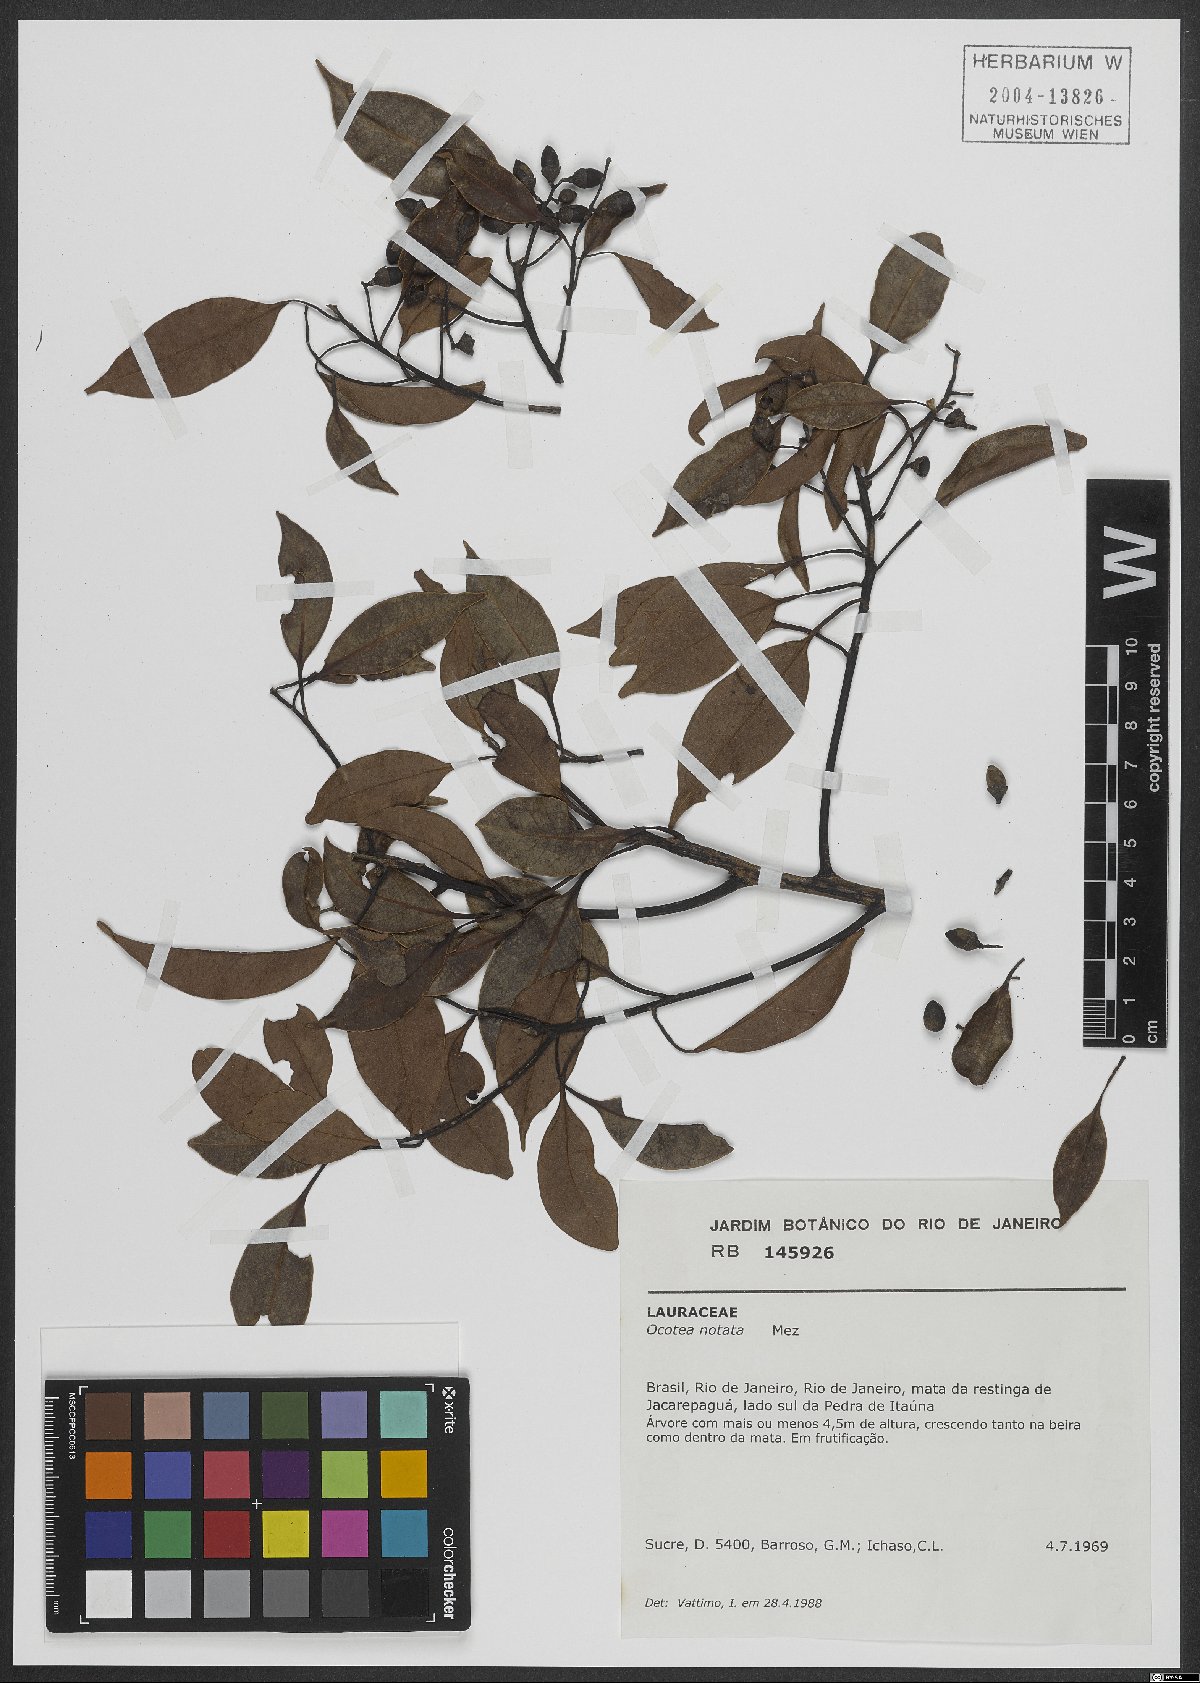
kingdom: Plantae
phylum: Tracheophyta
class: Magnoliopsida
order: Laurales
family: Lauraceae
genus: Mespilodaphne
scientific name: Mespilodaphne notata
